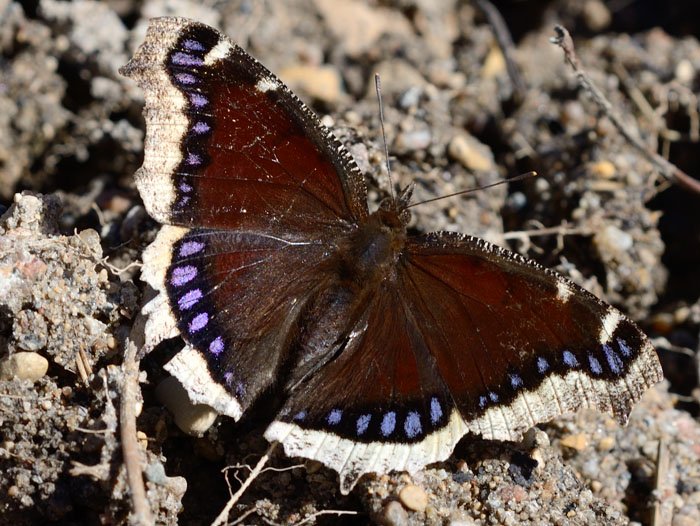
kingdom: Animalia
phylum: Arthropoda
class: Insecta
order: Lepidoptera
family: Nymphalidae
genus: Nymphalis
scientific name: Nymphalis antiopa
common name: Mourning Cloak
